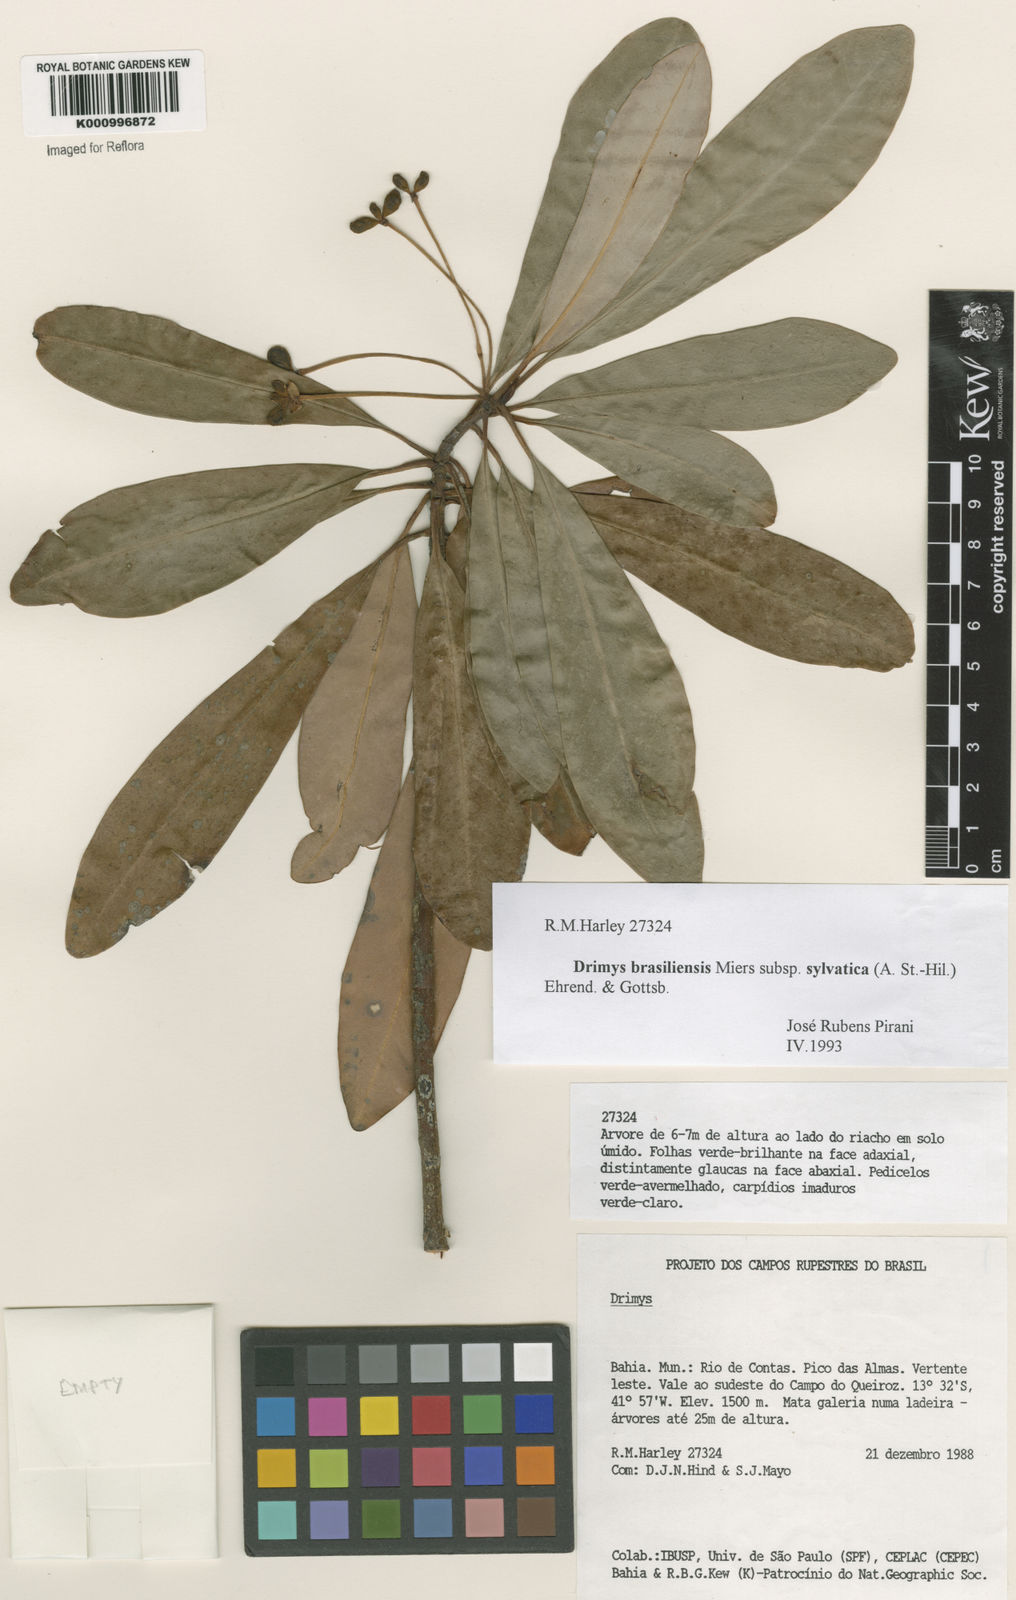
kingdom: Plantae
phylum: Tracheophyta
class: Magnoliopsida
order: Canellales
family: Winteraceae
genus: Drimys
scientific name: Drimys brasiliensis
